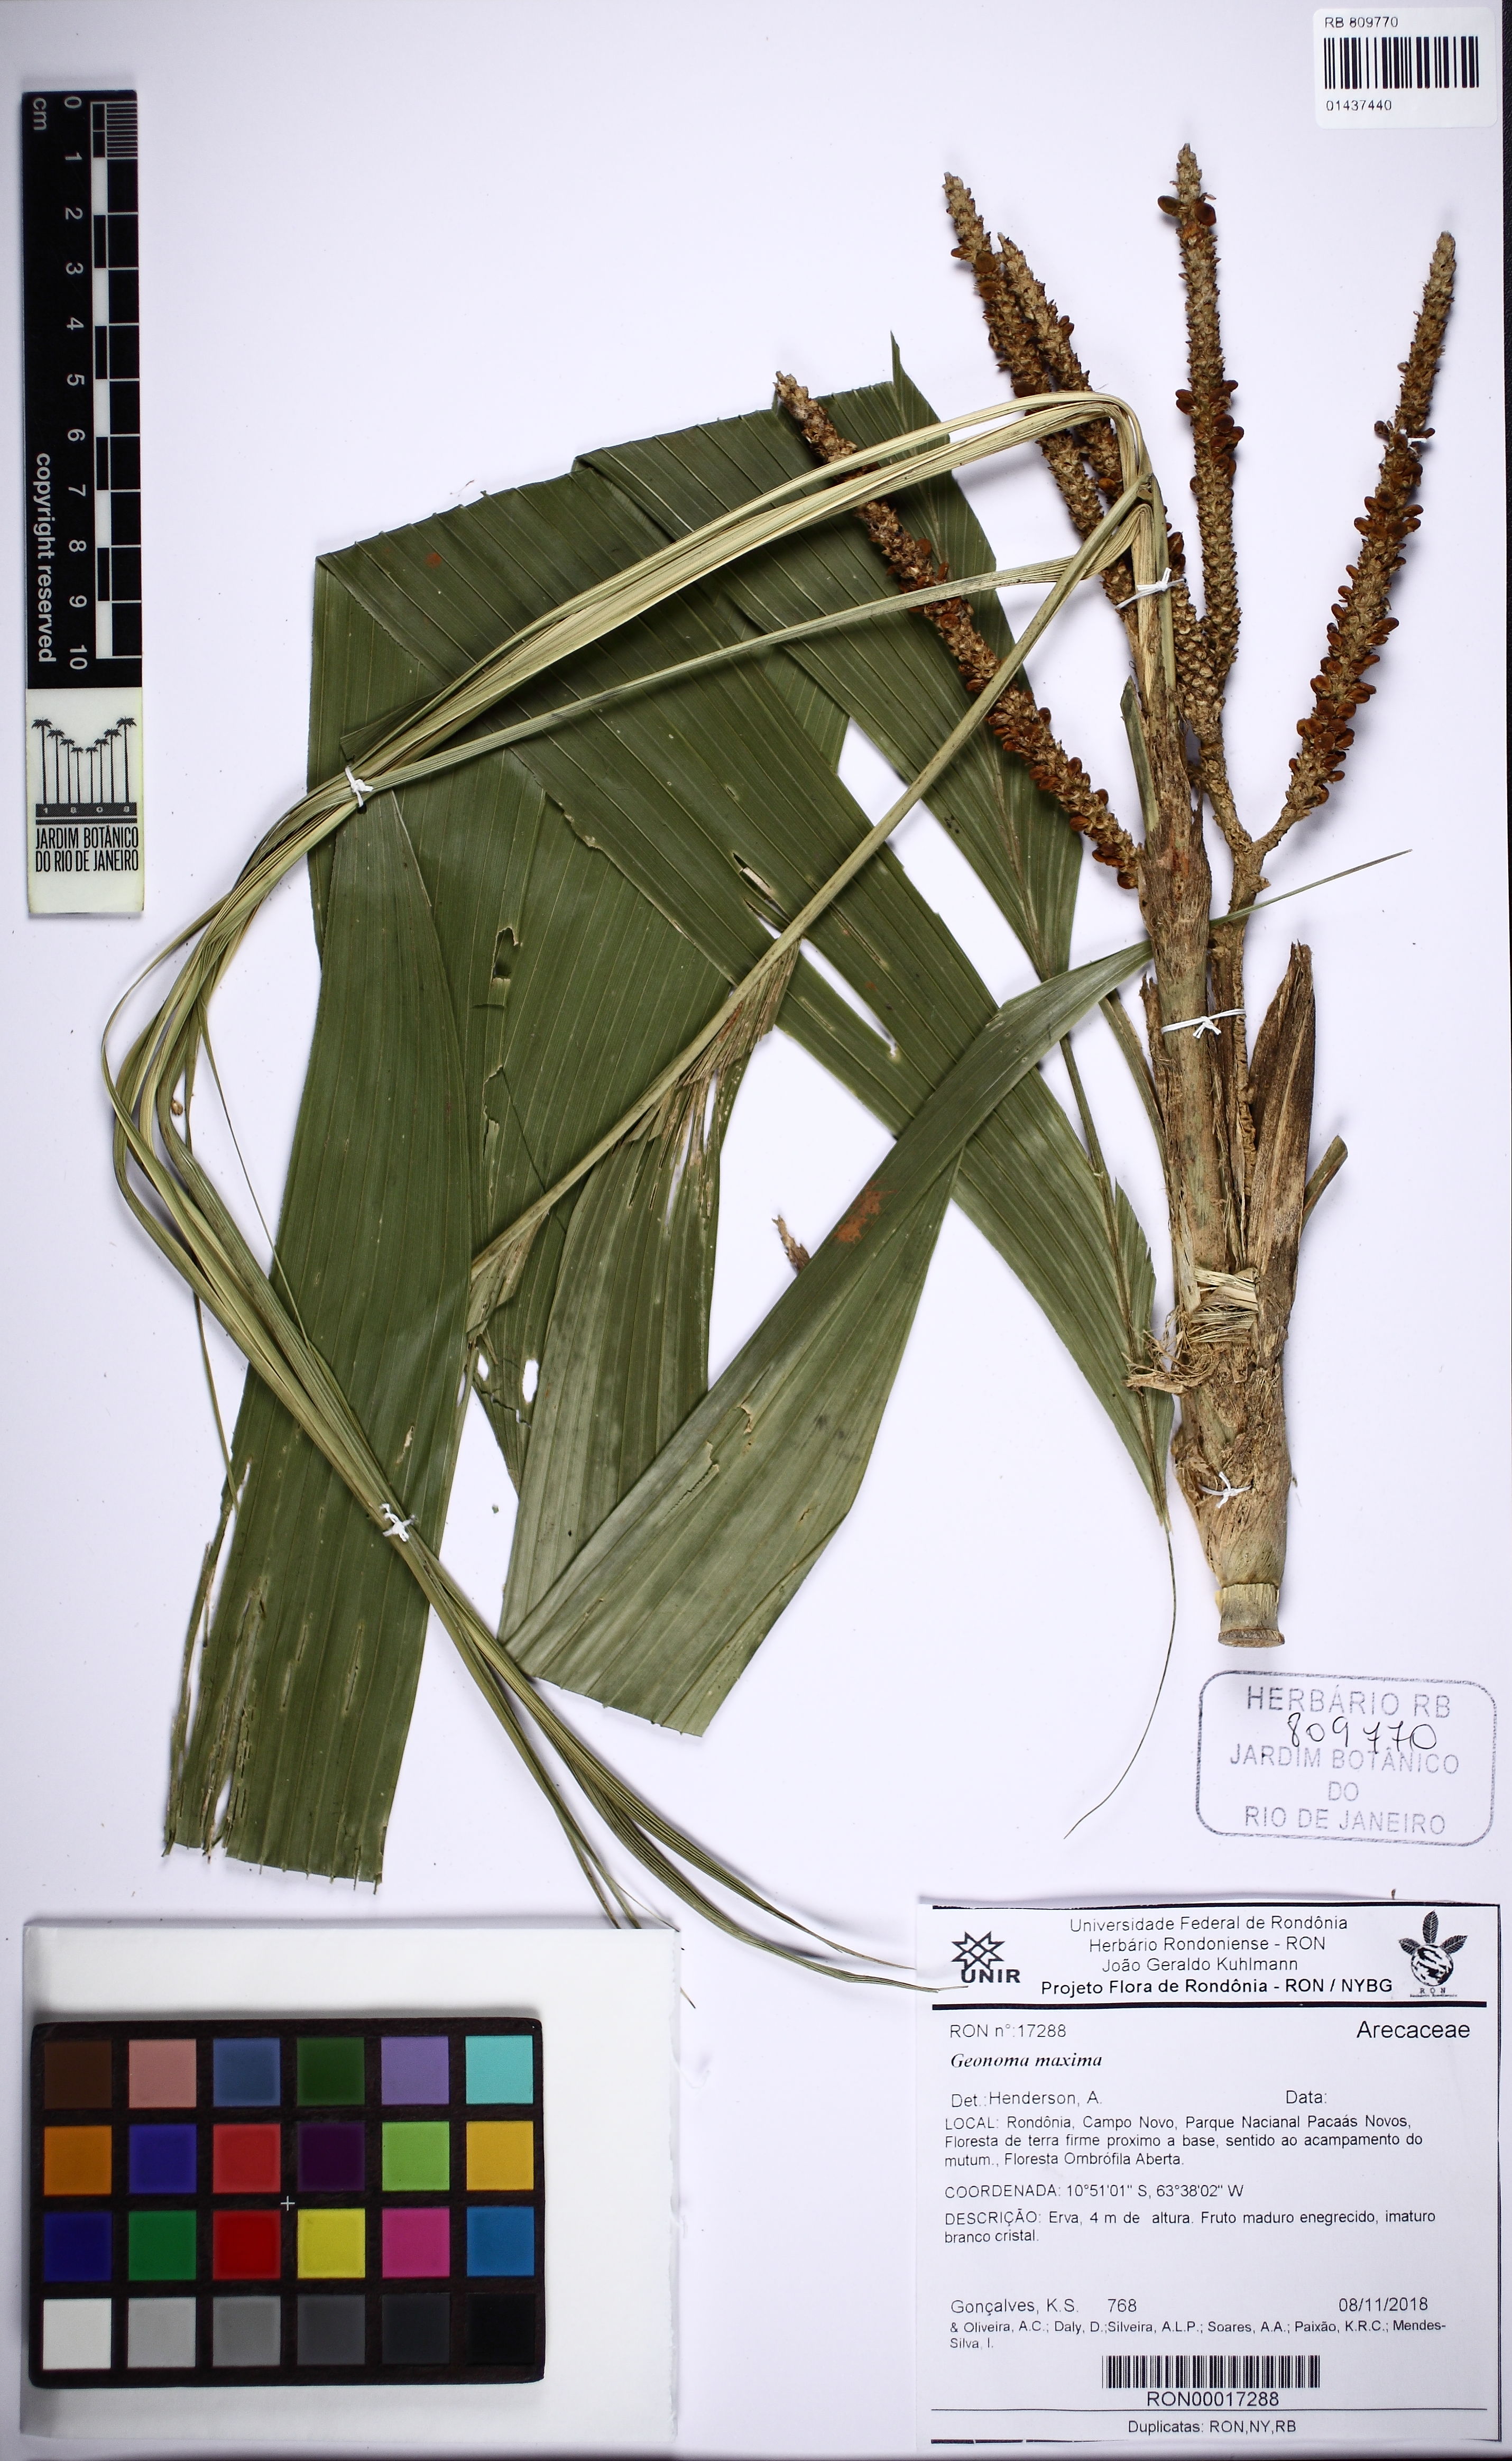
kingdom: Plantae
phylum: Tracheophyta
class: Liliopsida
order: Arecales
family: Arecaceae
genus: Geonoma
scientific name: Geonoma maxima
